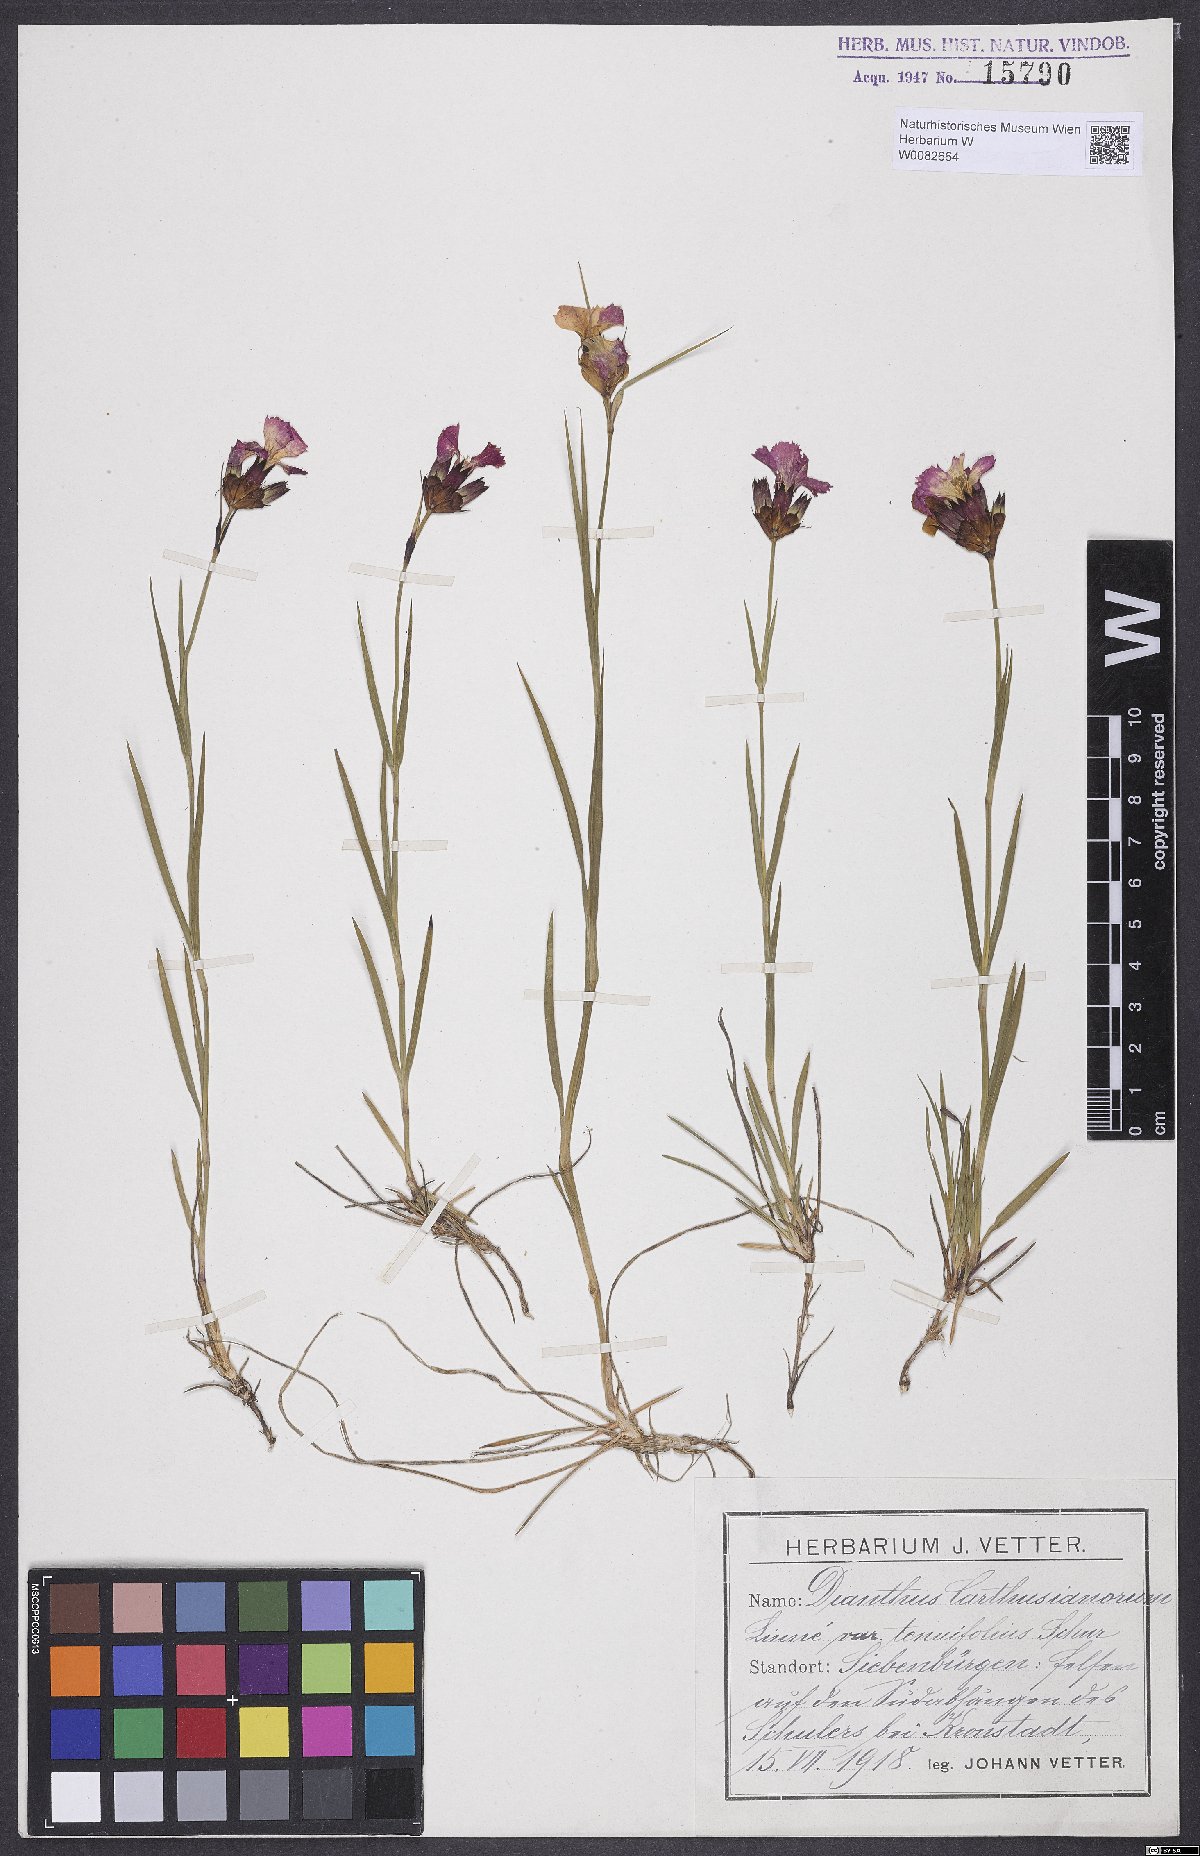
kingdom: Plantae
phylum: Tracheophyta
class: Magnoliopsida
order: Caryophyllales
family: Caryophyllaceae
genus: Dianthus
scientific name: Dianthus carthusianorum
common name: Carthusian pink
